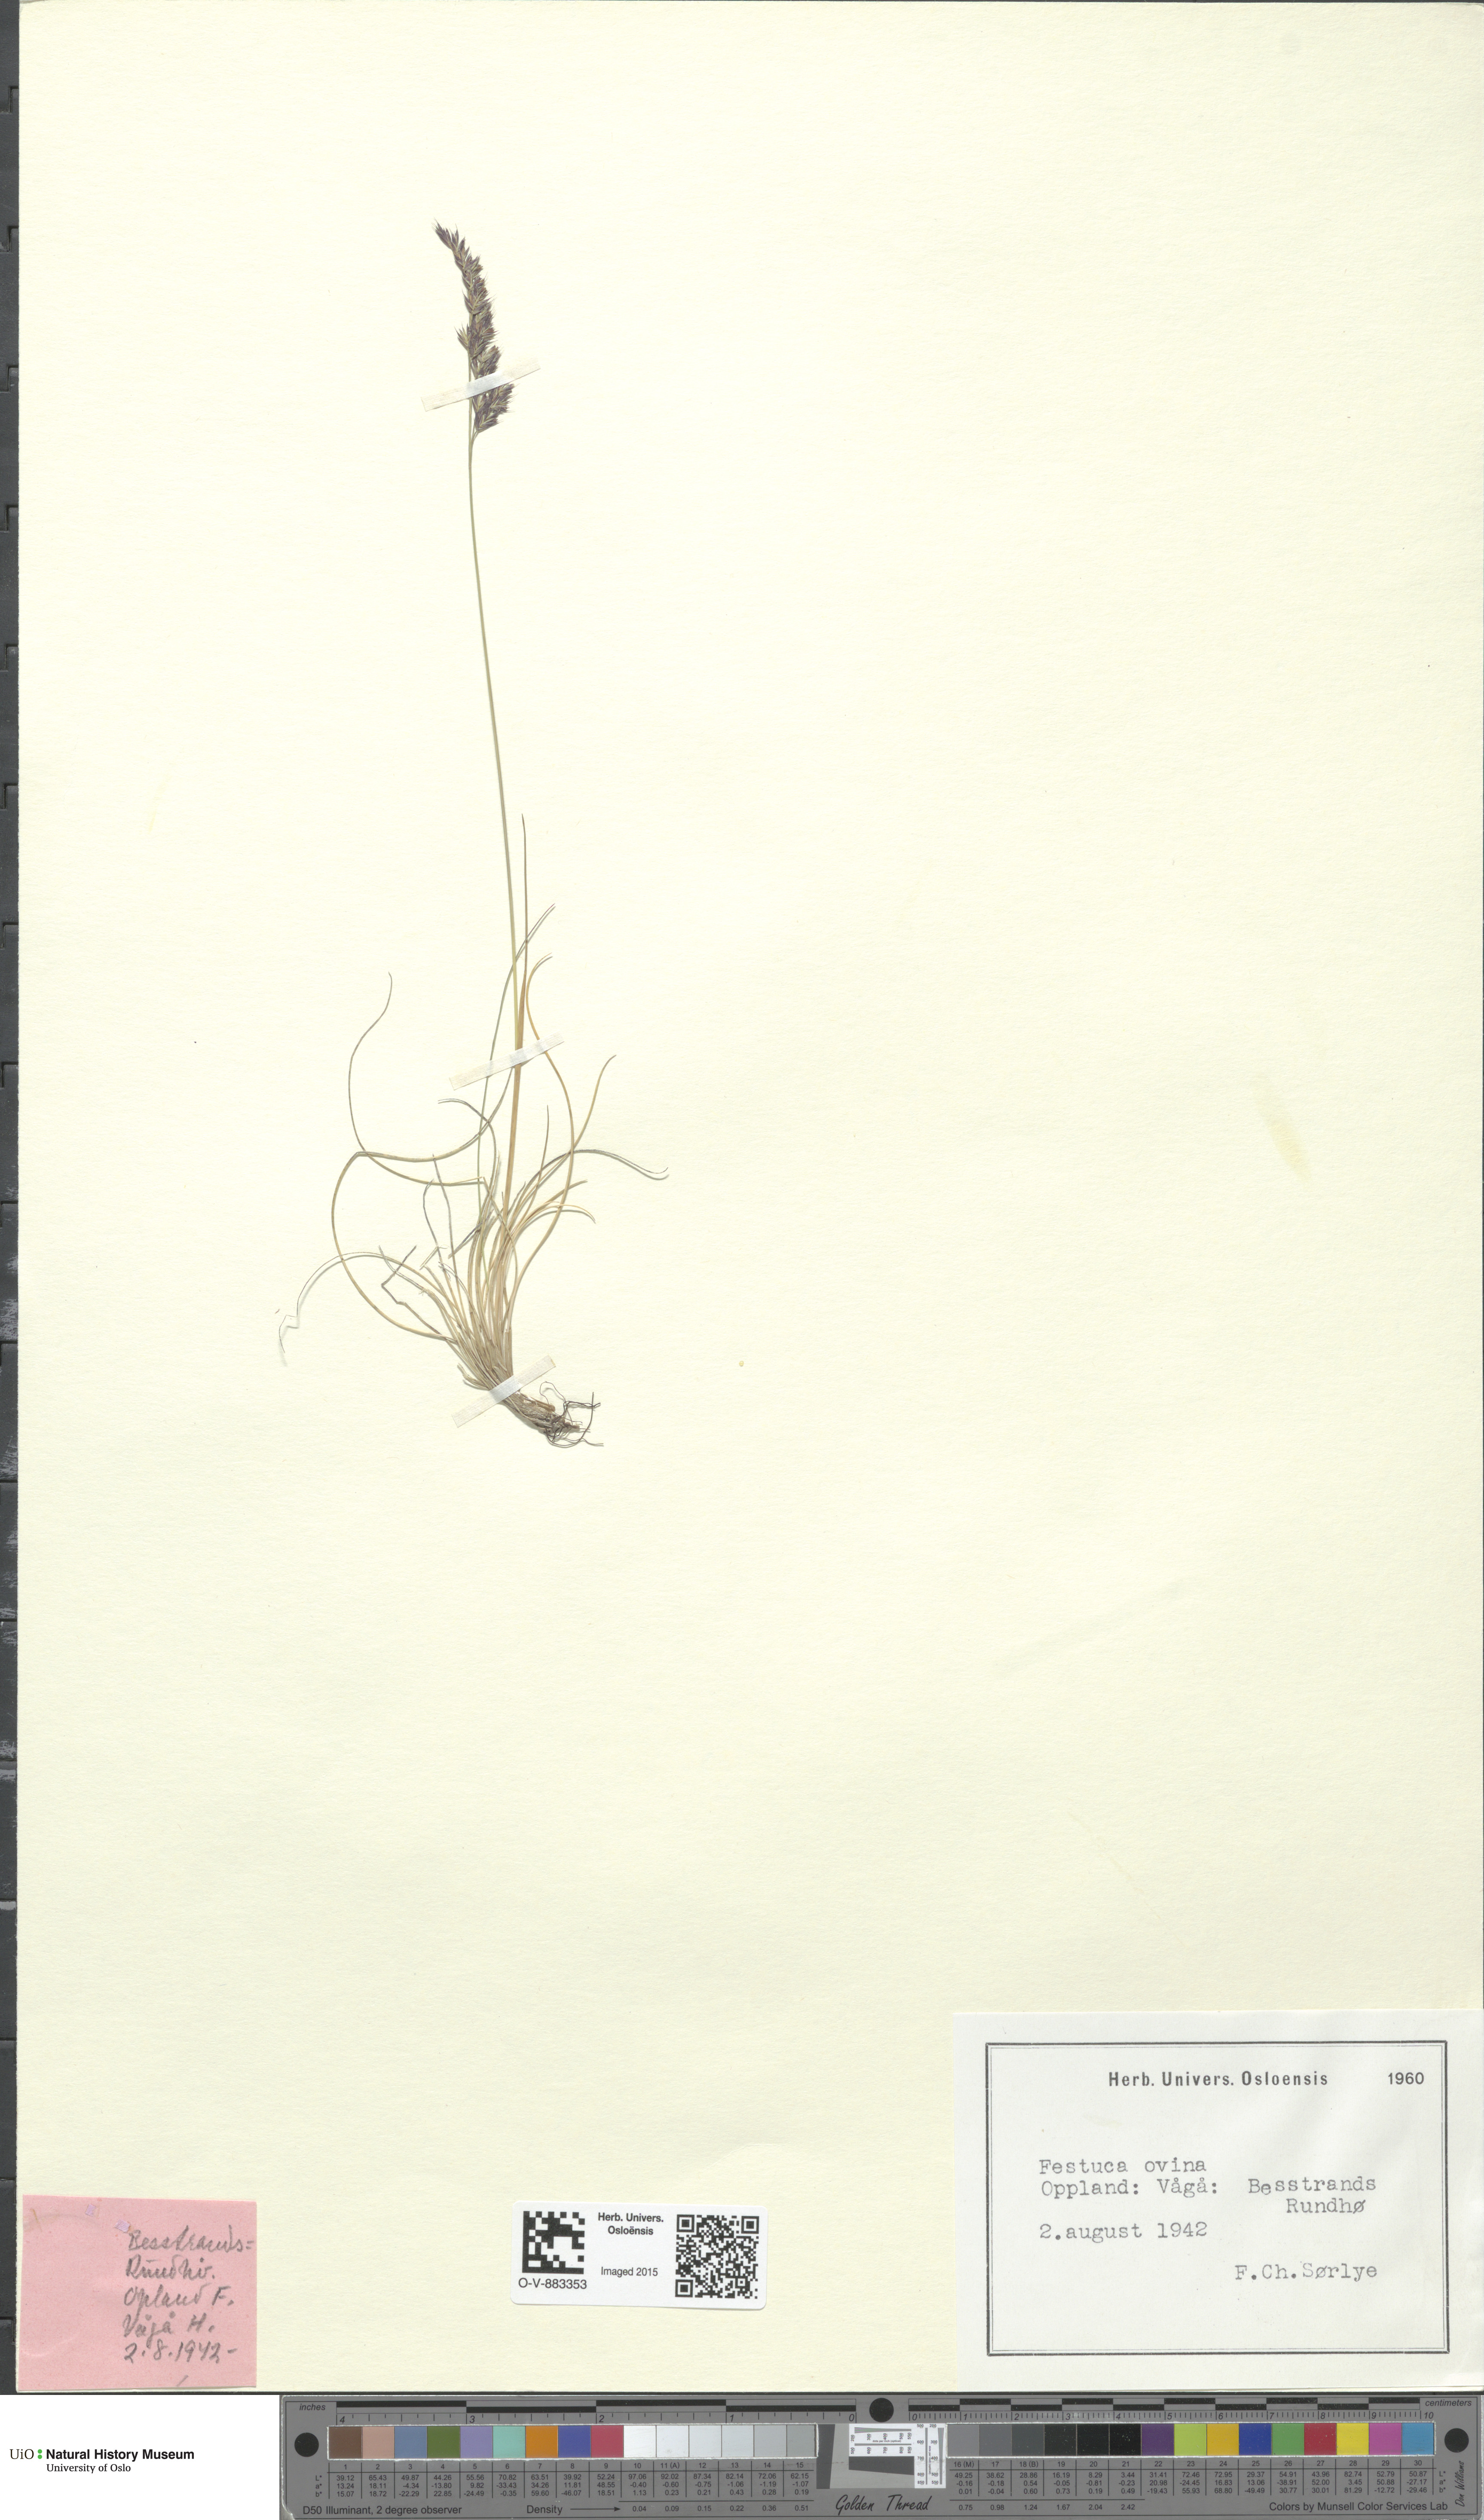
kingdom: Plantae
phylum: Tracheophyta
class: Liliopsida
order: Poales
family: Poaceae
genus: Festuca
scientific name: Festuca ovina
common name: Sheep fescue
